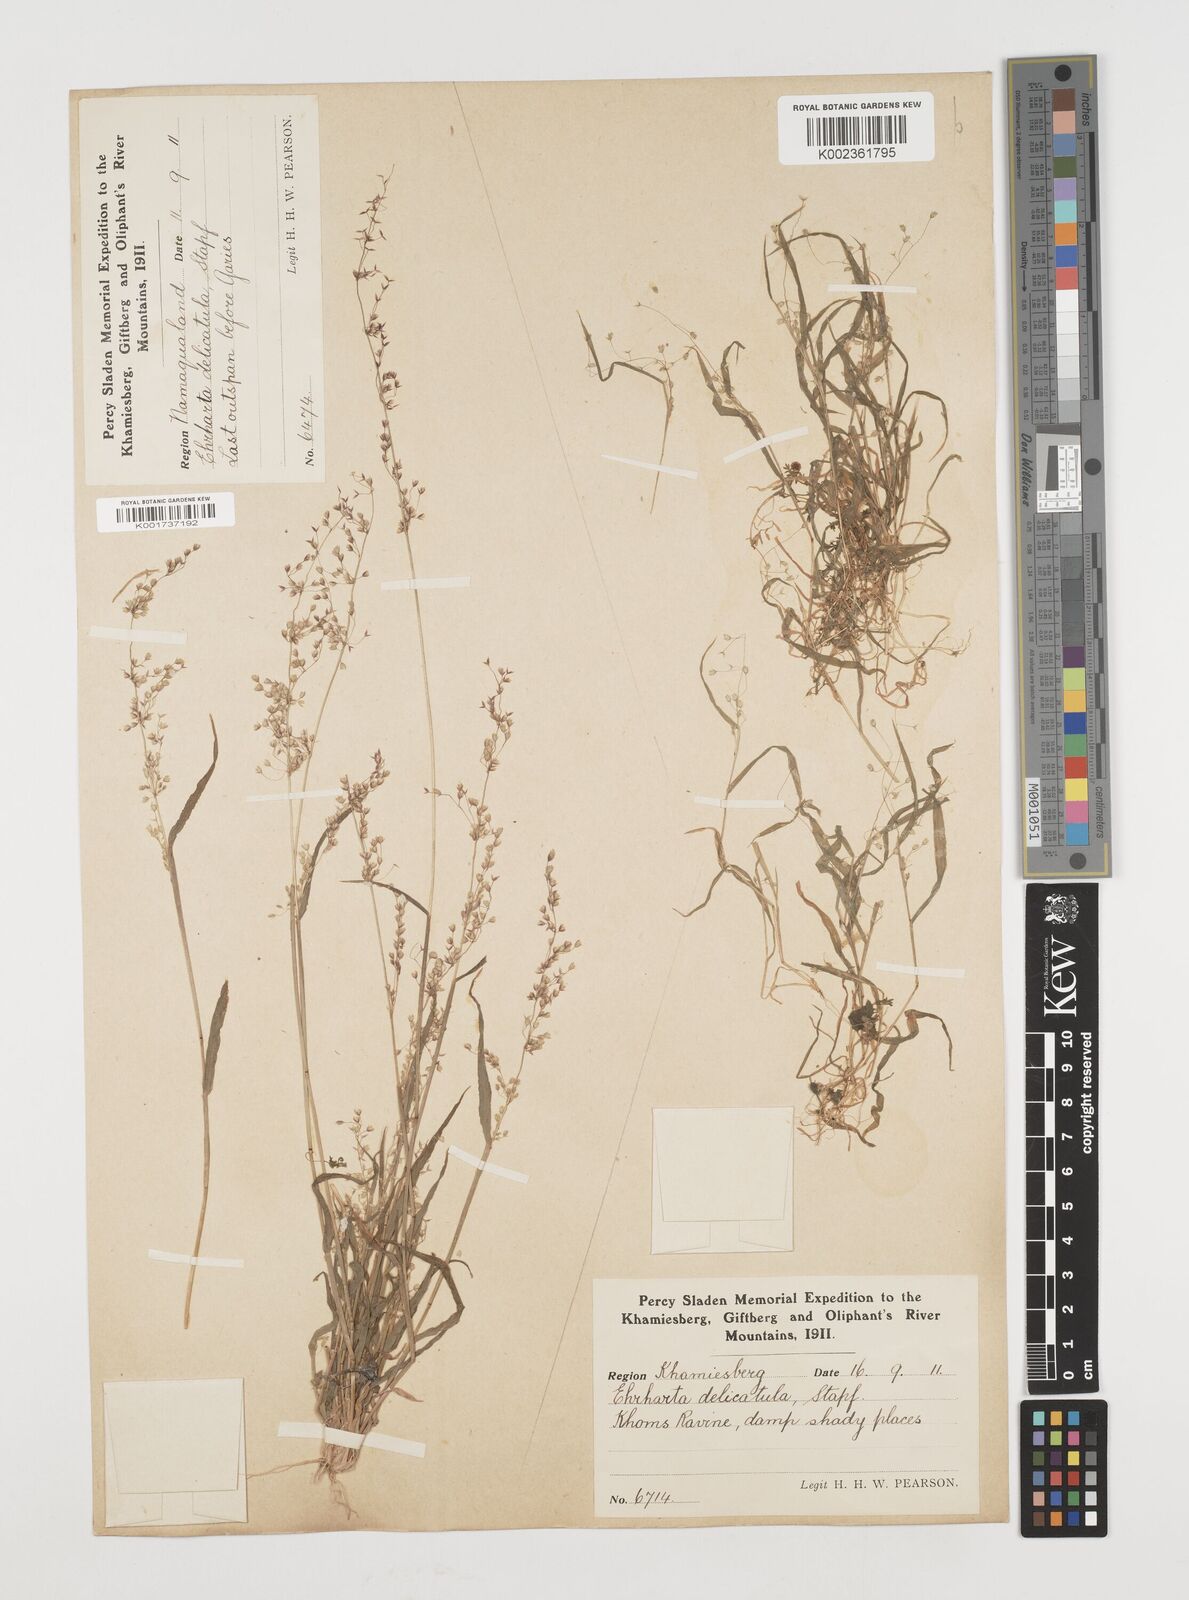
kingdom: Plantae
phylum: Tracheophyta
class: Liliopsida
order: Poales
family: Poaceae
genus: Ehrharta
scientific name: Ehrharta delicatula
